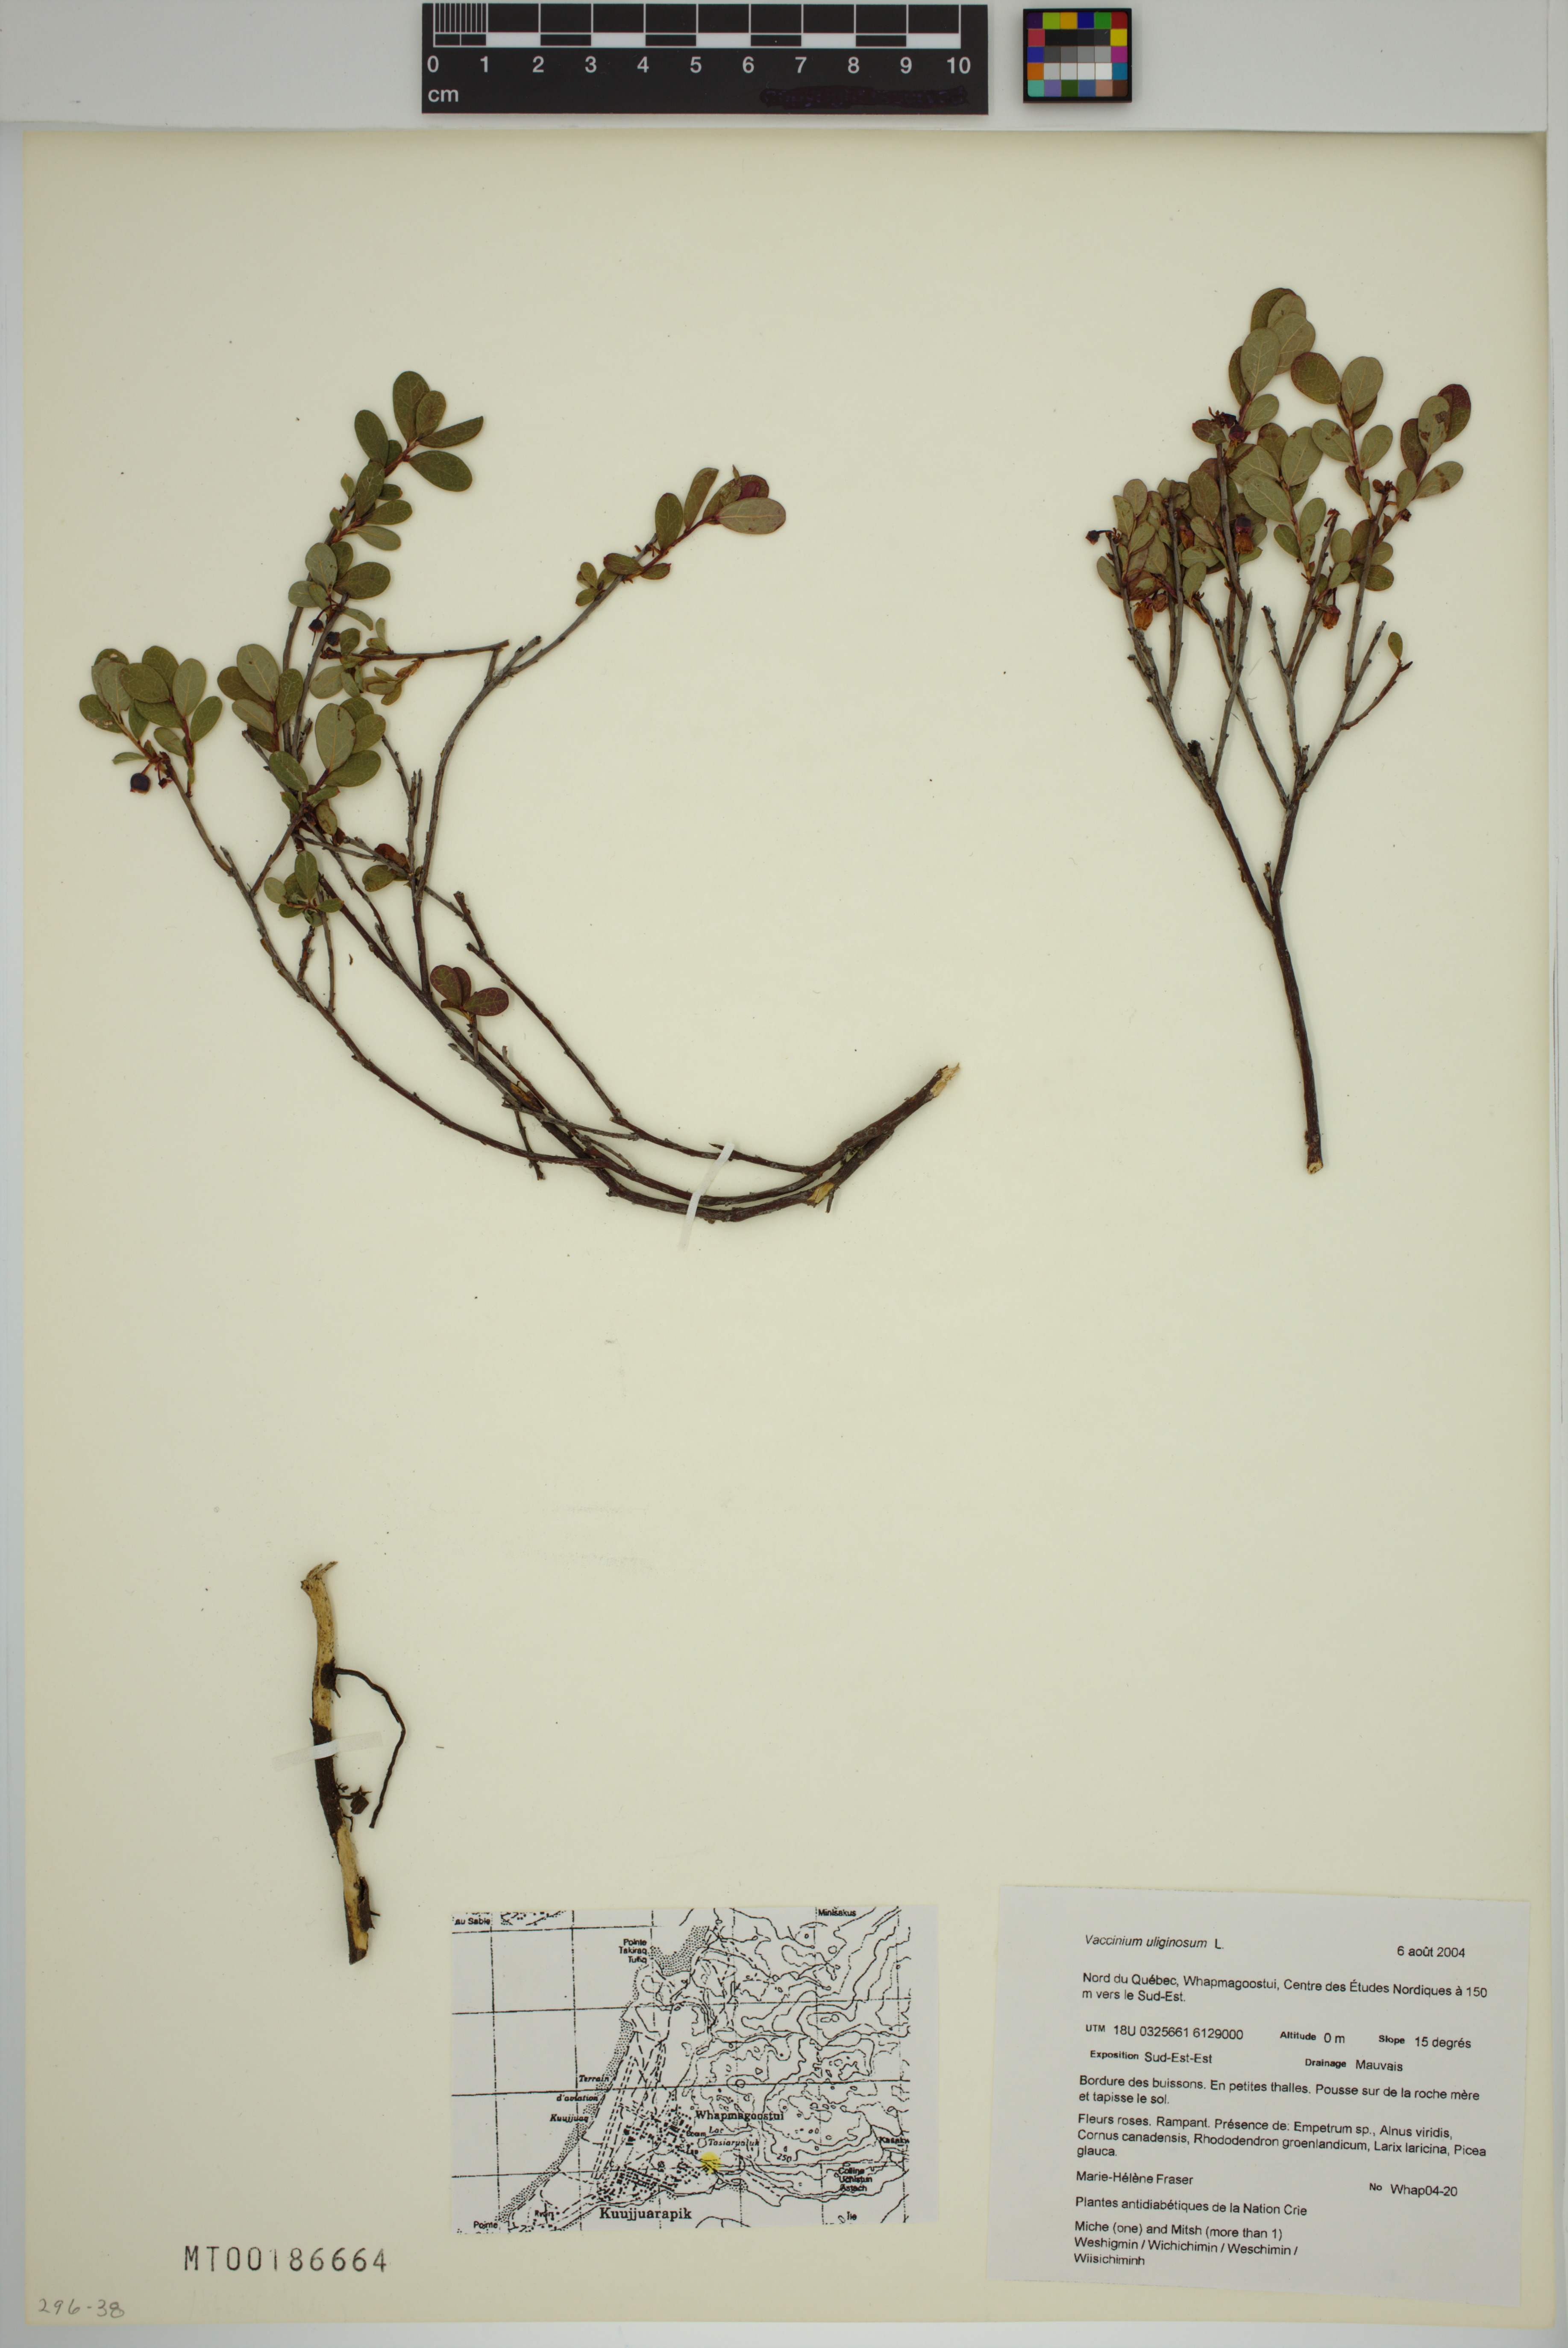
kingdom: Plantae
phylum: Tracheophyta
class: Magnoliopsida
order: Ericales
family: Ericaceae
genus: Vaccinium
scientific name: Vaccinium uliginosum
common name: Bog bilberry
